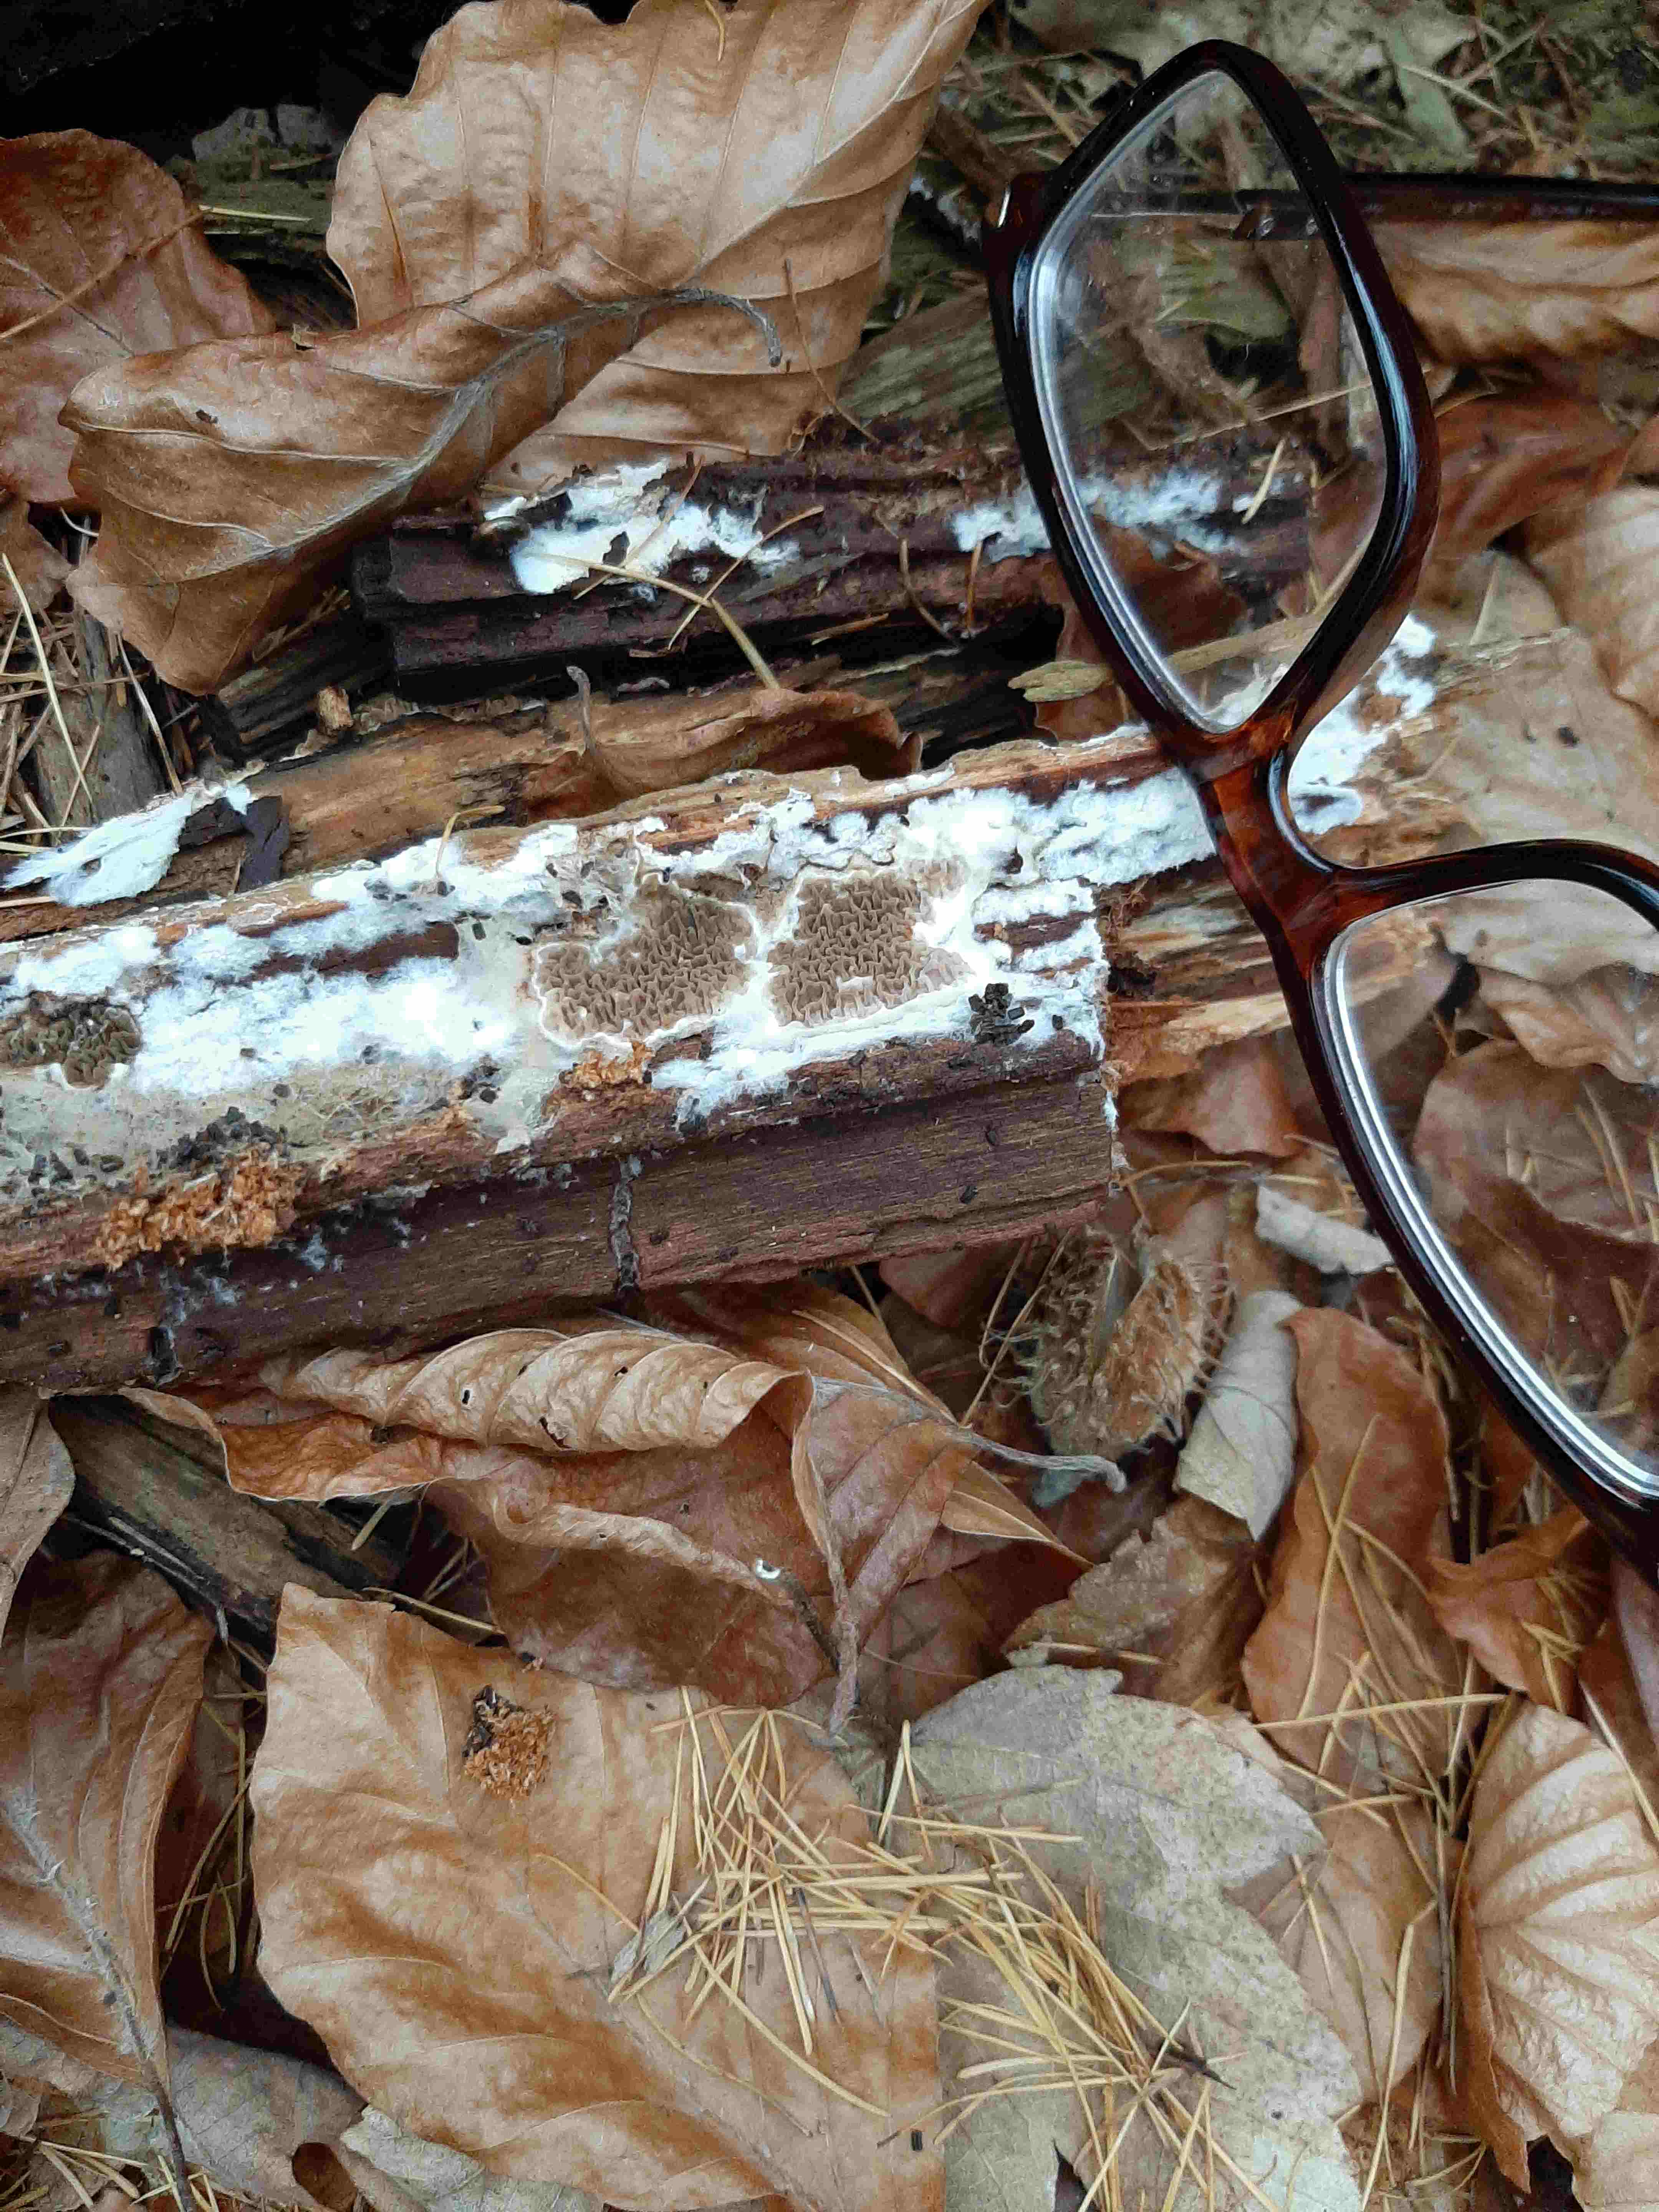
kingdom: Fungi
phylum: Basidiomycota
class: Agaricomycetes
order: Boletales
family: Serpulaceae
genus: Serpula
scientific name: Serpula himantioides
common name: tyndkødet hussvamp
